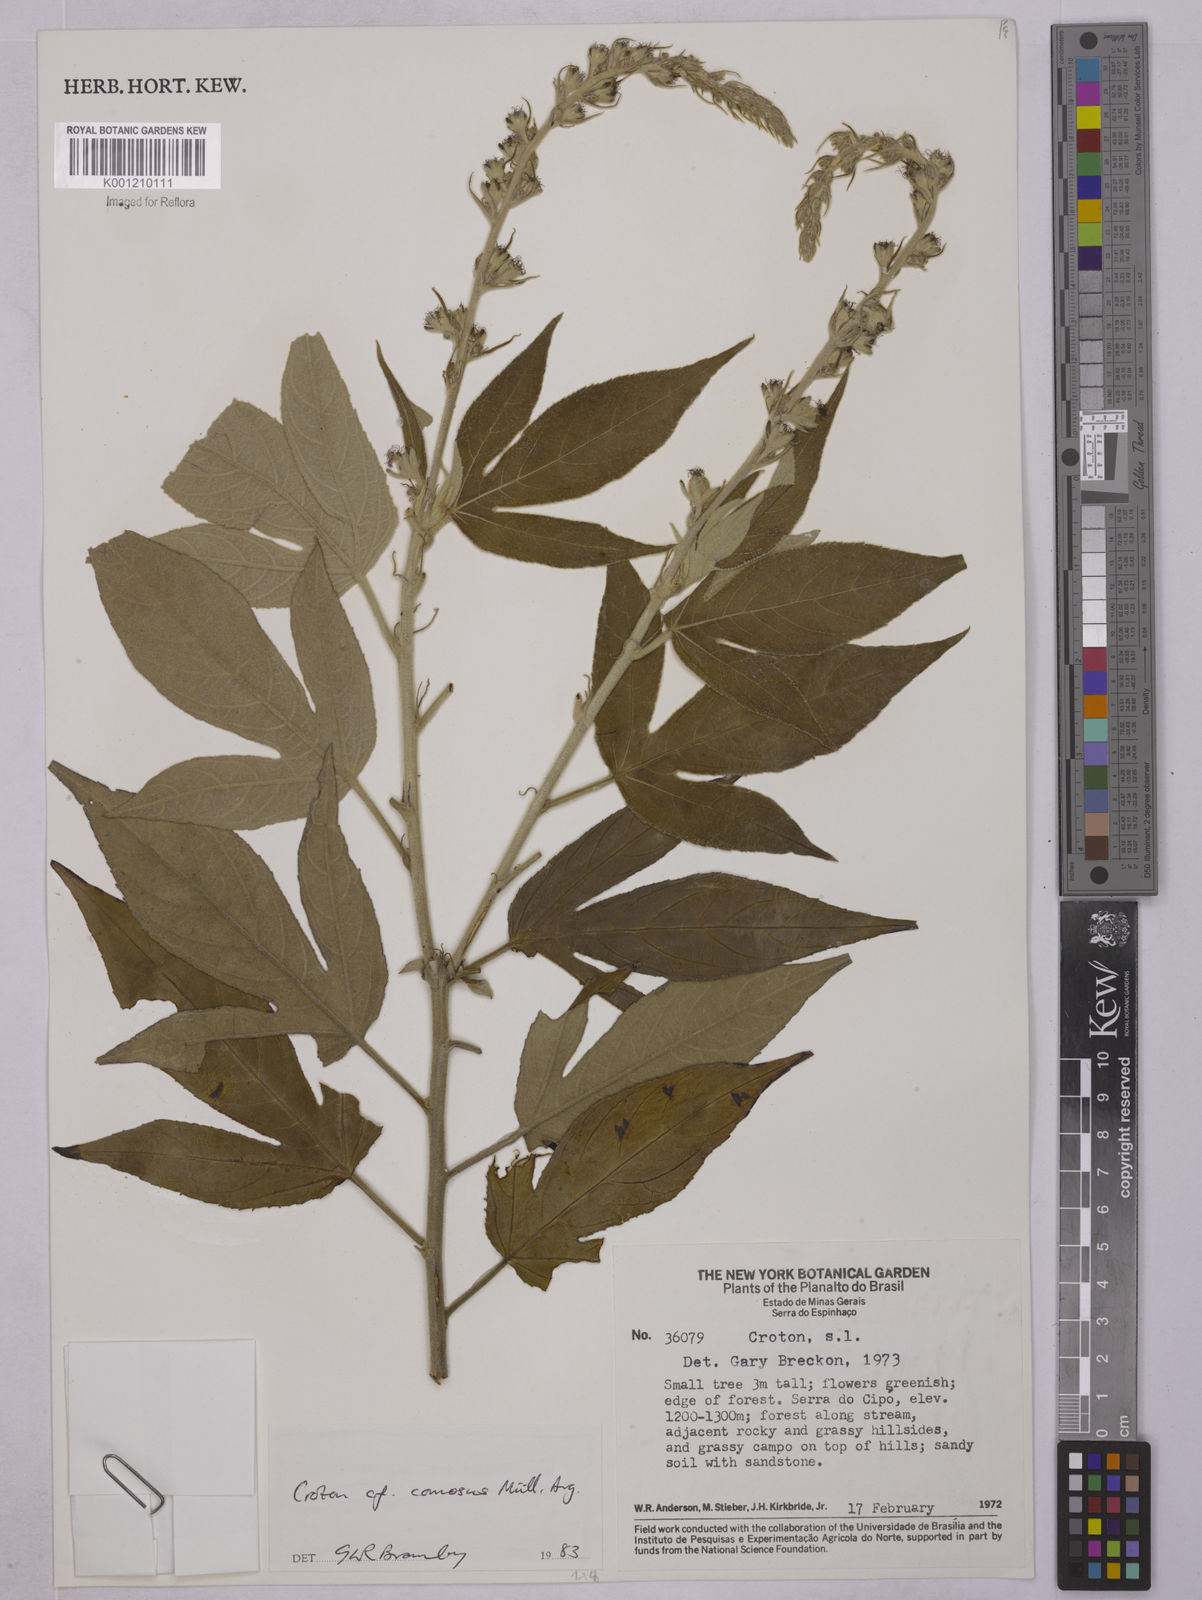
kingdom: Plantae
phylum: Tracheophyta
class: Magnoliopsida
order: Malpighiales
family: Euphorbiaceae
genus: Astraea
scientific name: Astraea
